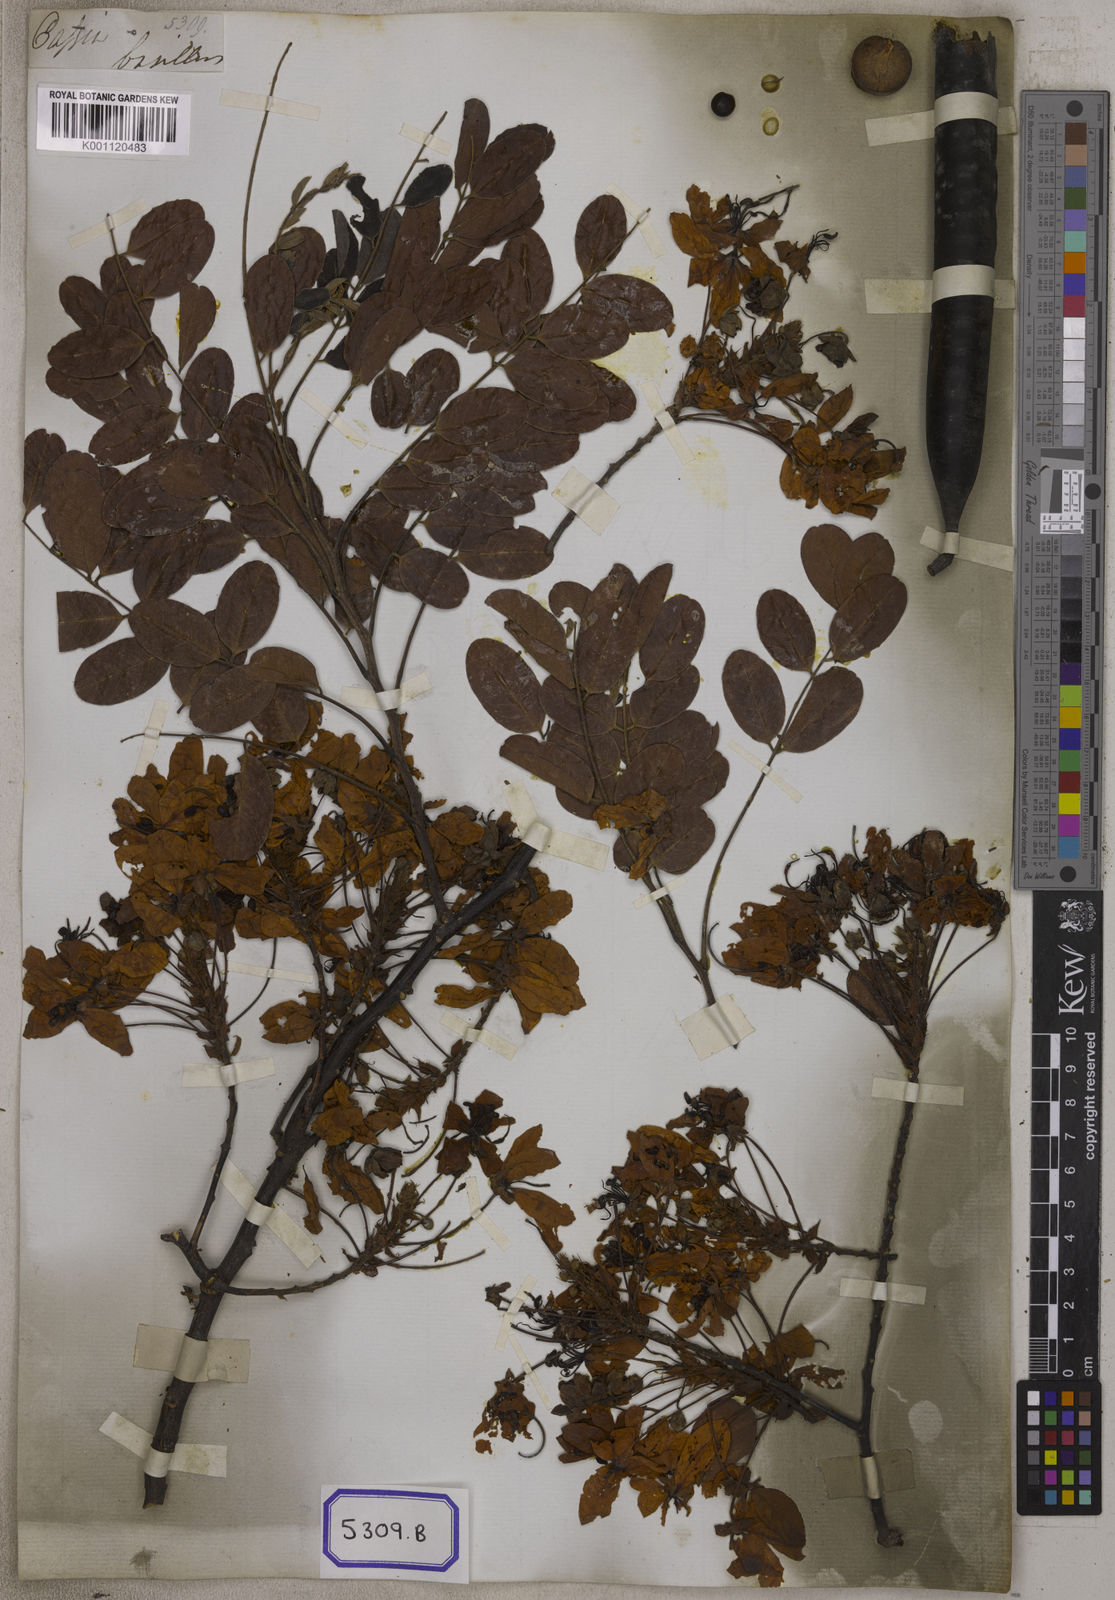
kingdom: Plantae
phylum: Tracheophyta
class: Magnoliopsida
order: Fabales
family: Fabaceae
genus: Cassia
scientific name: Cassia javanica
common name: Apple blossom
